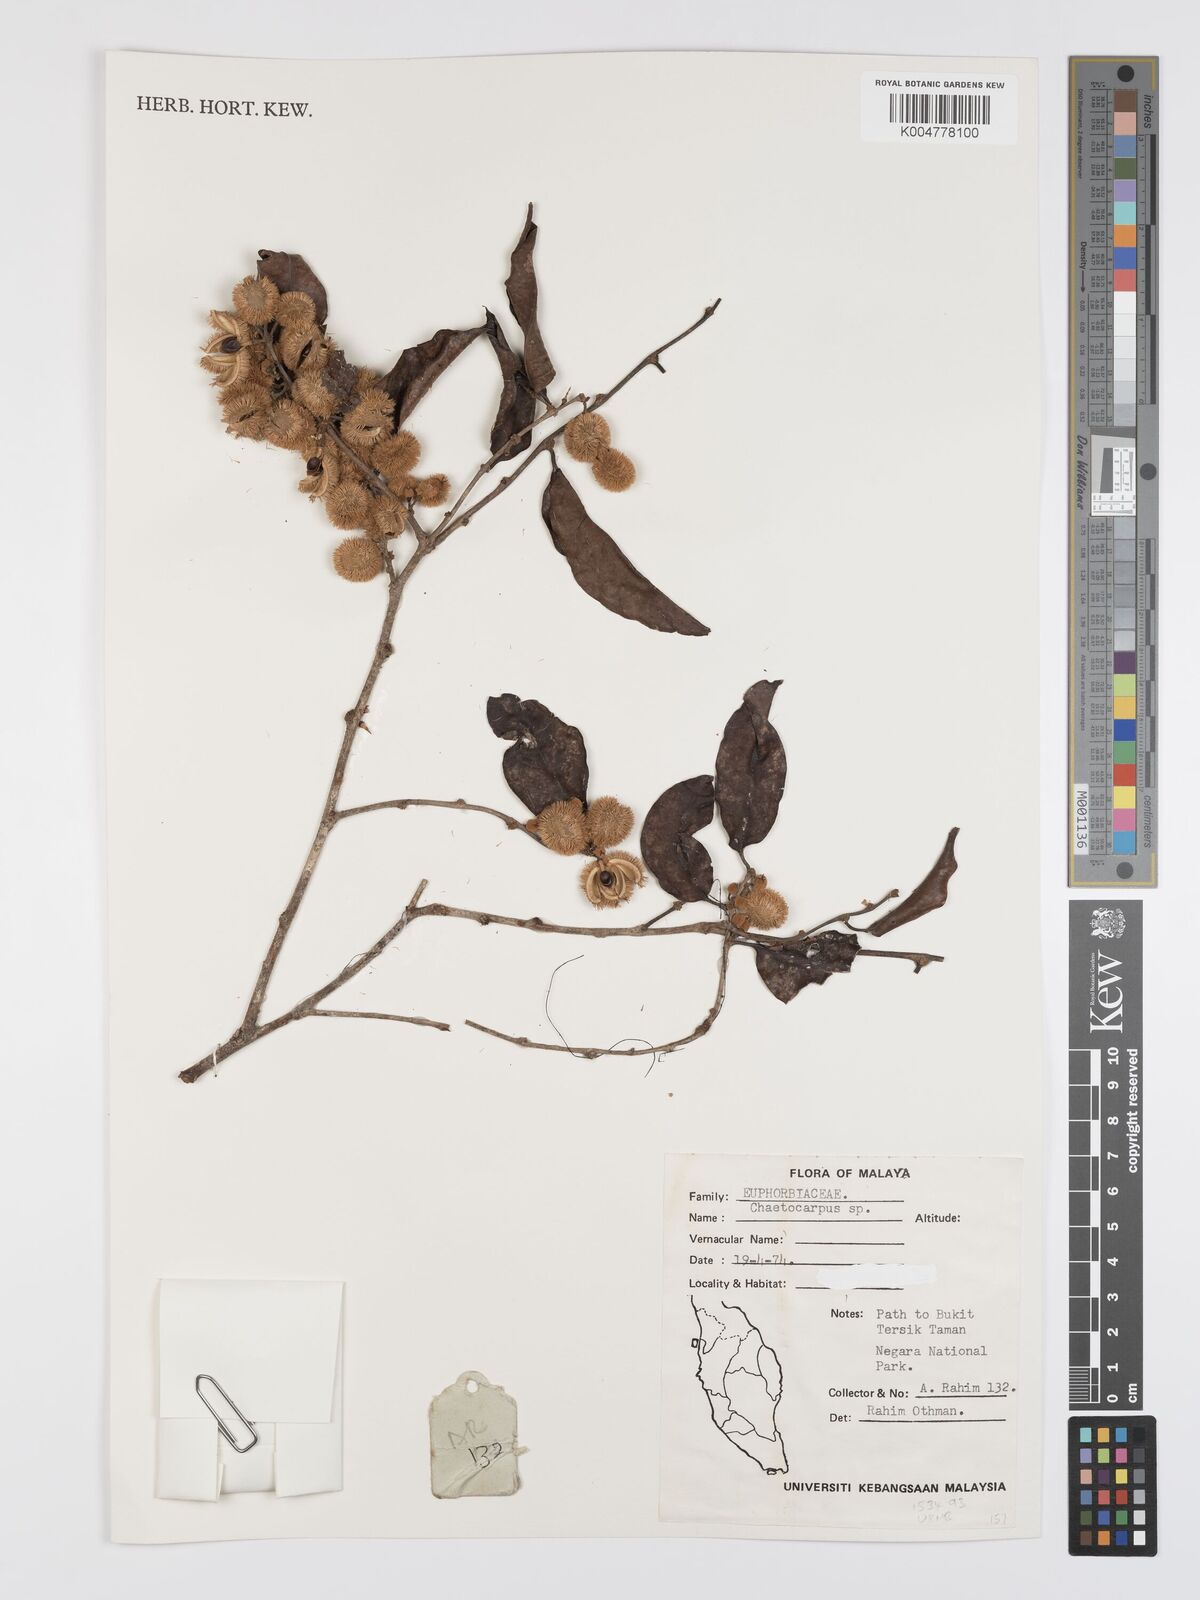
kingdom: Plantae
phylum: Tracheophyta
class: Magnoliopsida
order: Malpighiales
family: Peraceae
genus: Chaetocarpus
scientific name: Chaetocarpus castanocarpus
